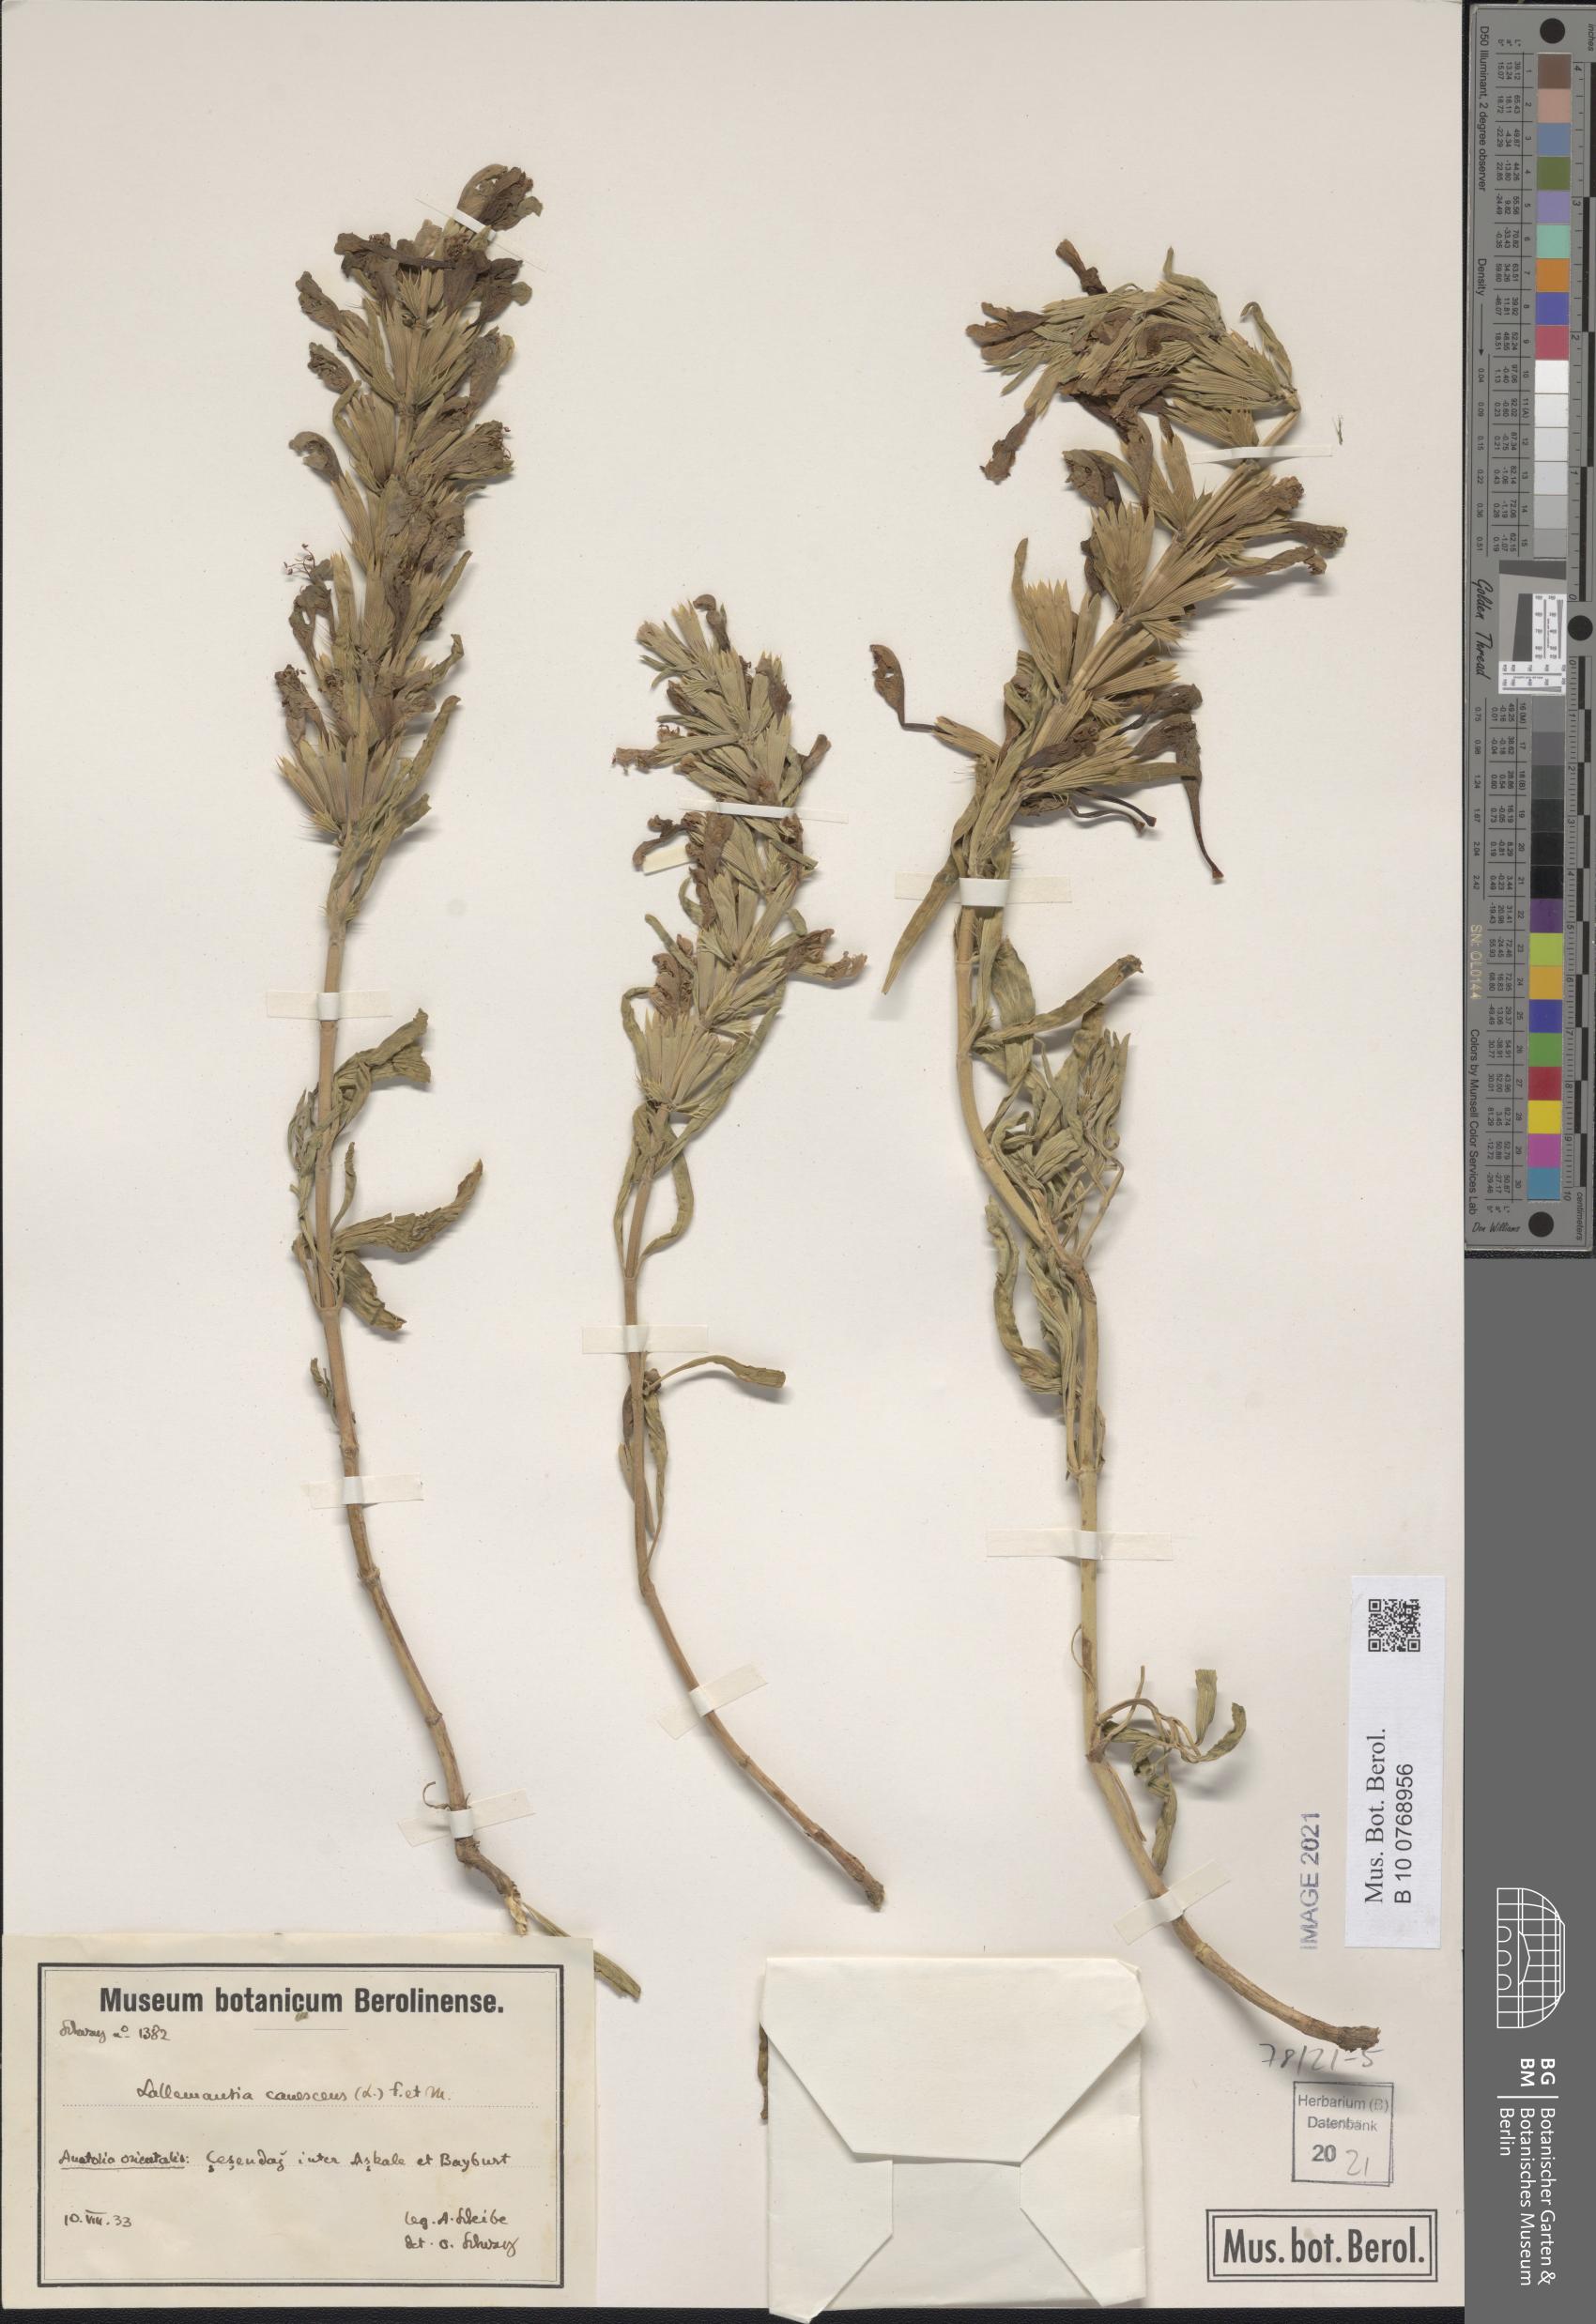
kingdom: Plantae
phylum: Tracheophyta
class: Magnoliopsida
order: Lamiales
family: Lamiaceae
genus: Lallemantia
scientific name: Lallemantia canescens
